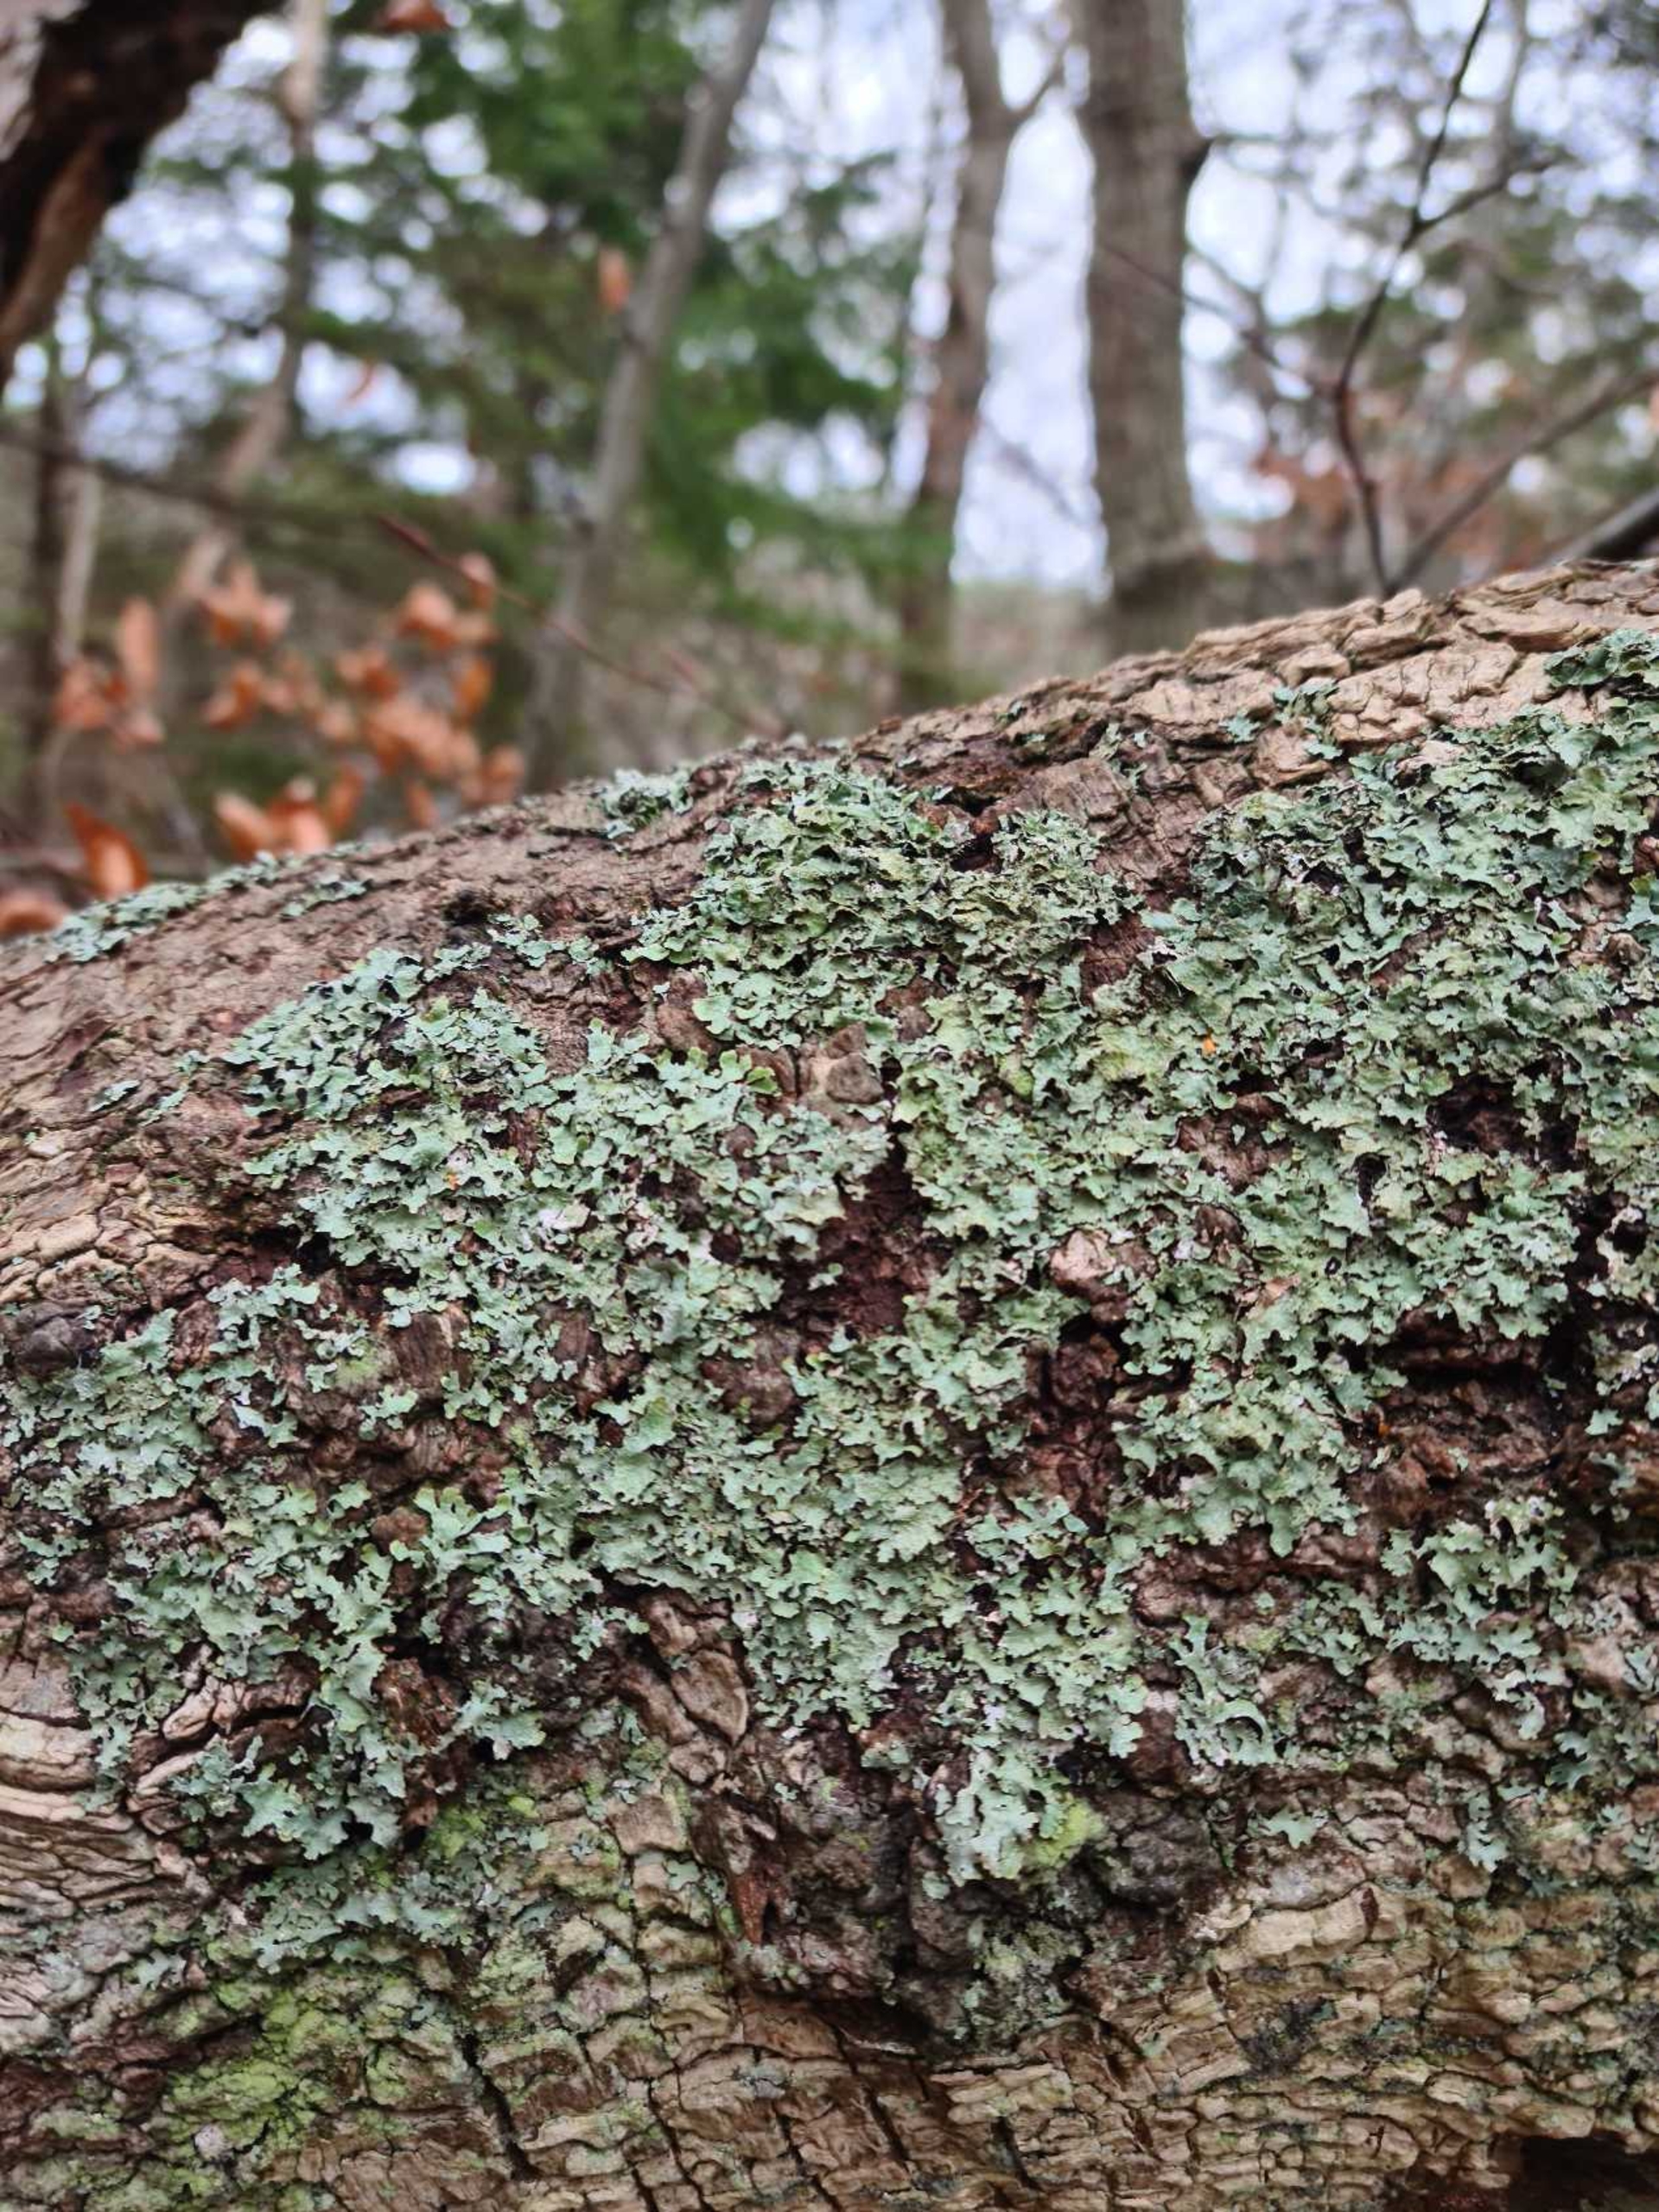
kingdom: Fungi
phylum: Ascomycota
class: Lecanoromycetes
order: Lecanorales
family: Parmeliaceae
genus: Parmelia
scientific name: Parmelia sulcata
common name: Rynket skållav
